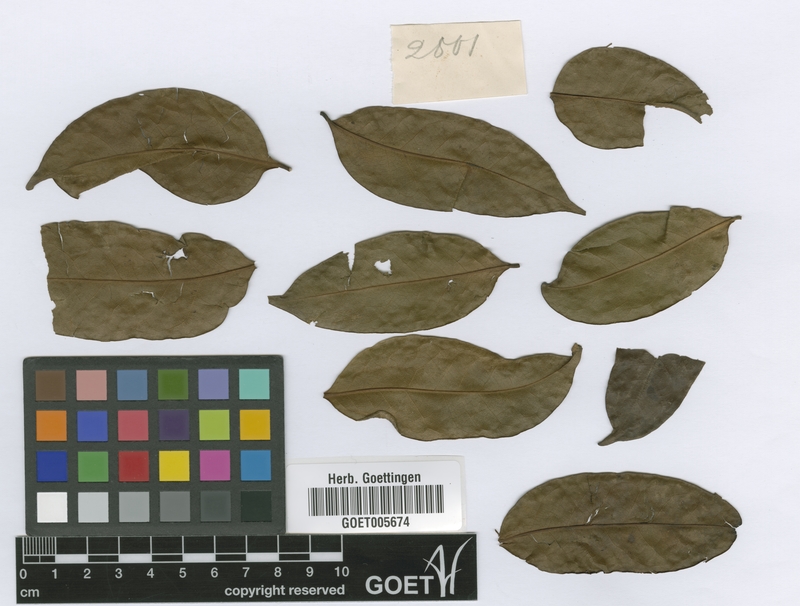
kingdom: Plantae
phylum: Tracheophyta
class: Magnoliopsida
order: Magnoliales
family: Annonaceae
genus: Artabotrys
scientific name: Artabotrys insignis
